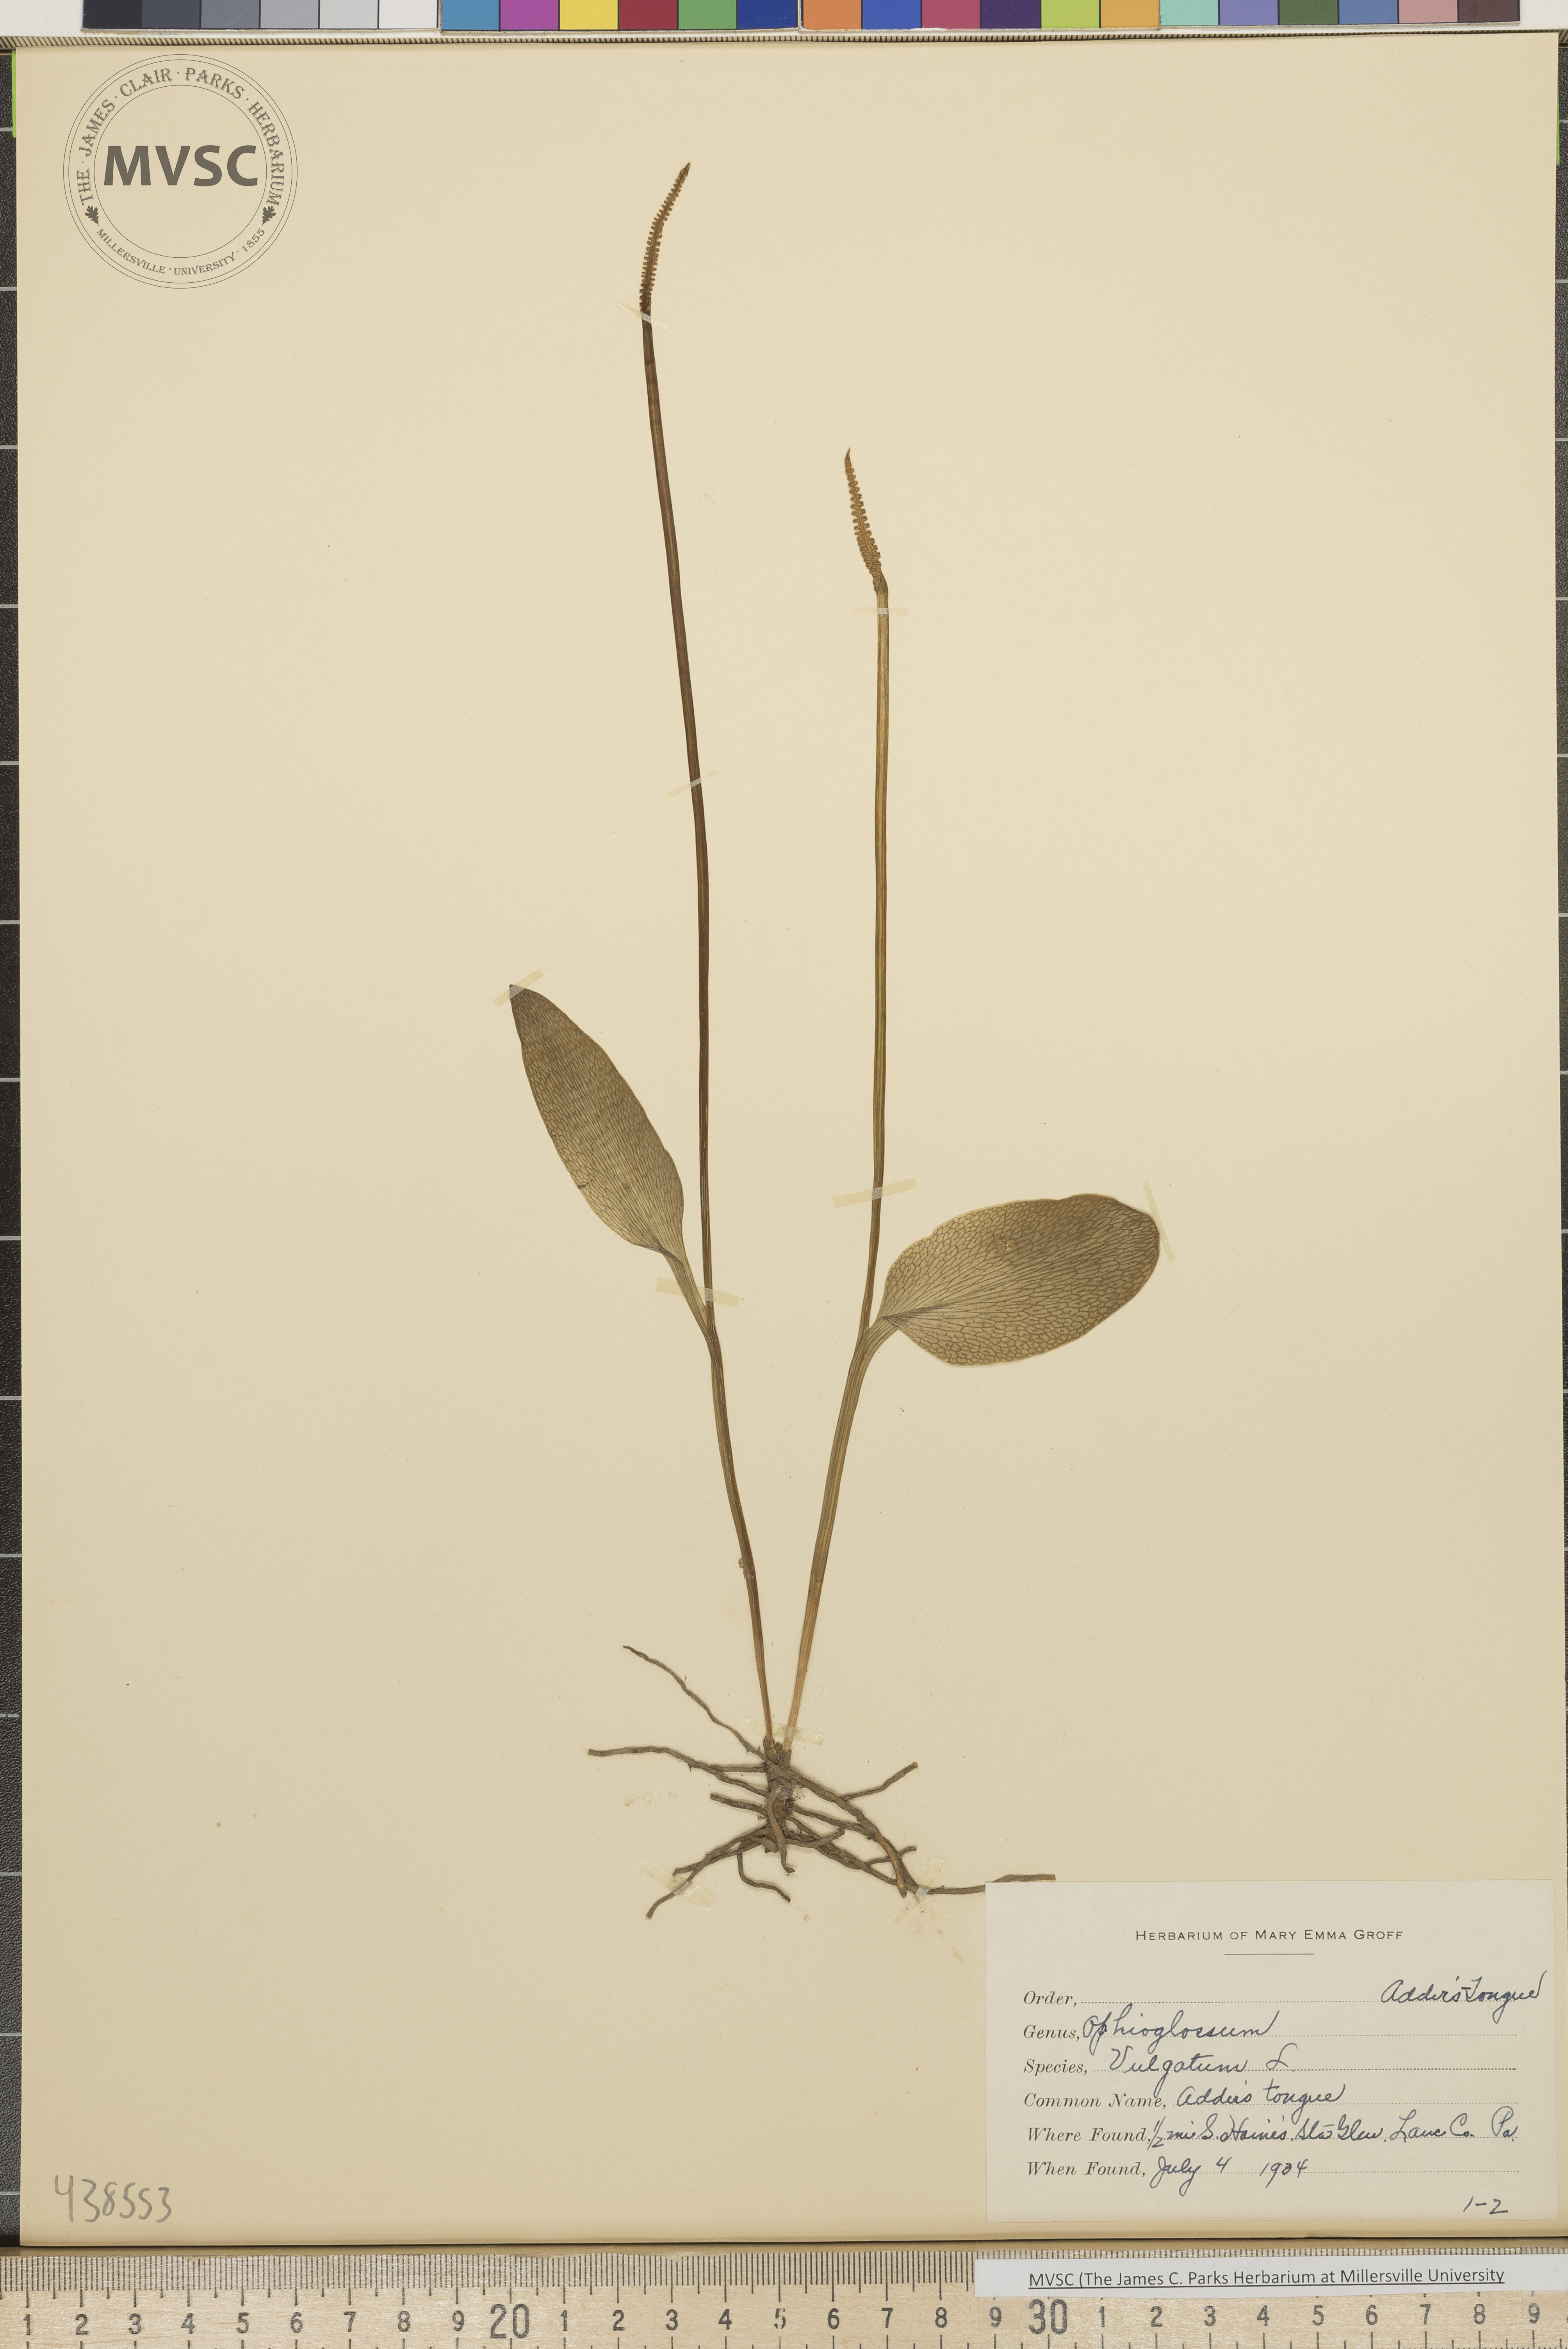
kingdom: Plantae
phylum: Tracheophyta
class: Polypodiopsida
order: Ophioglossales
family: Ophioglossaceae
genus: Ophioglossum
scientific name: Ophioglossum vulgatum
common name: Adder's-tongue
